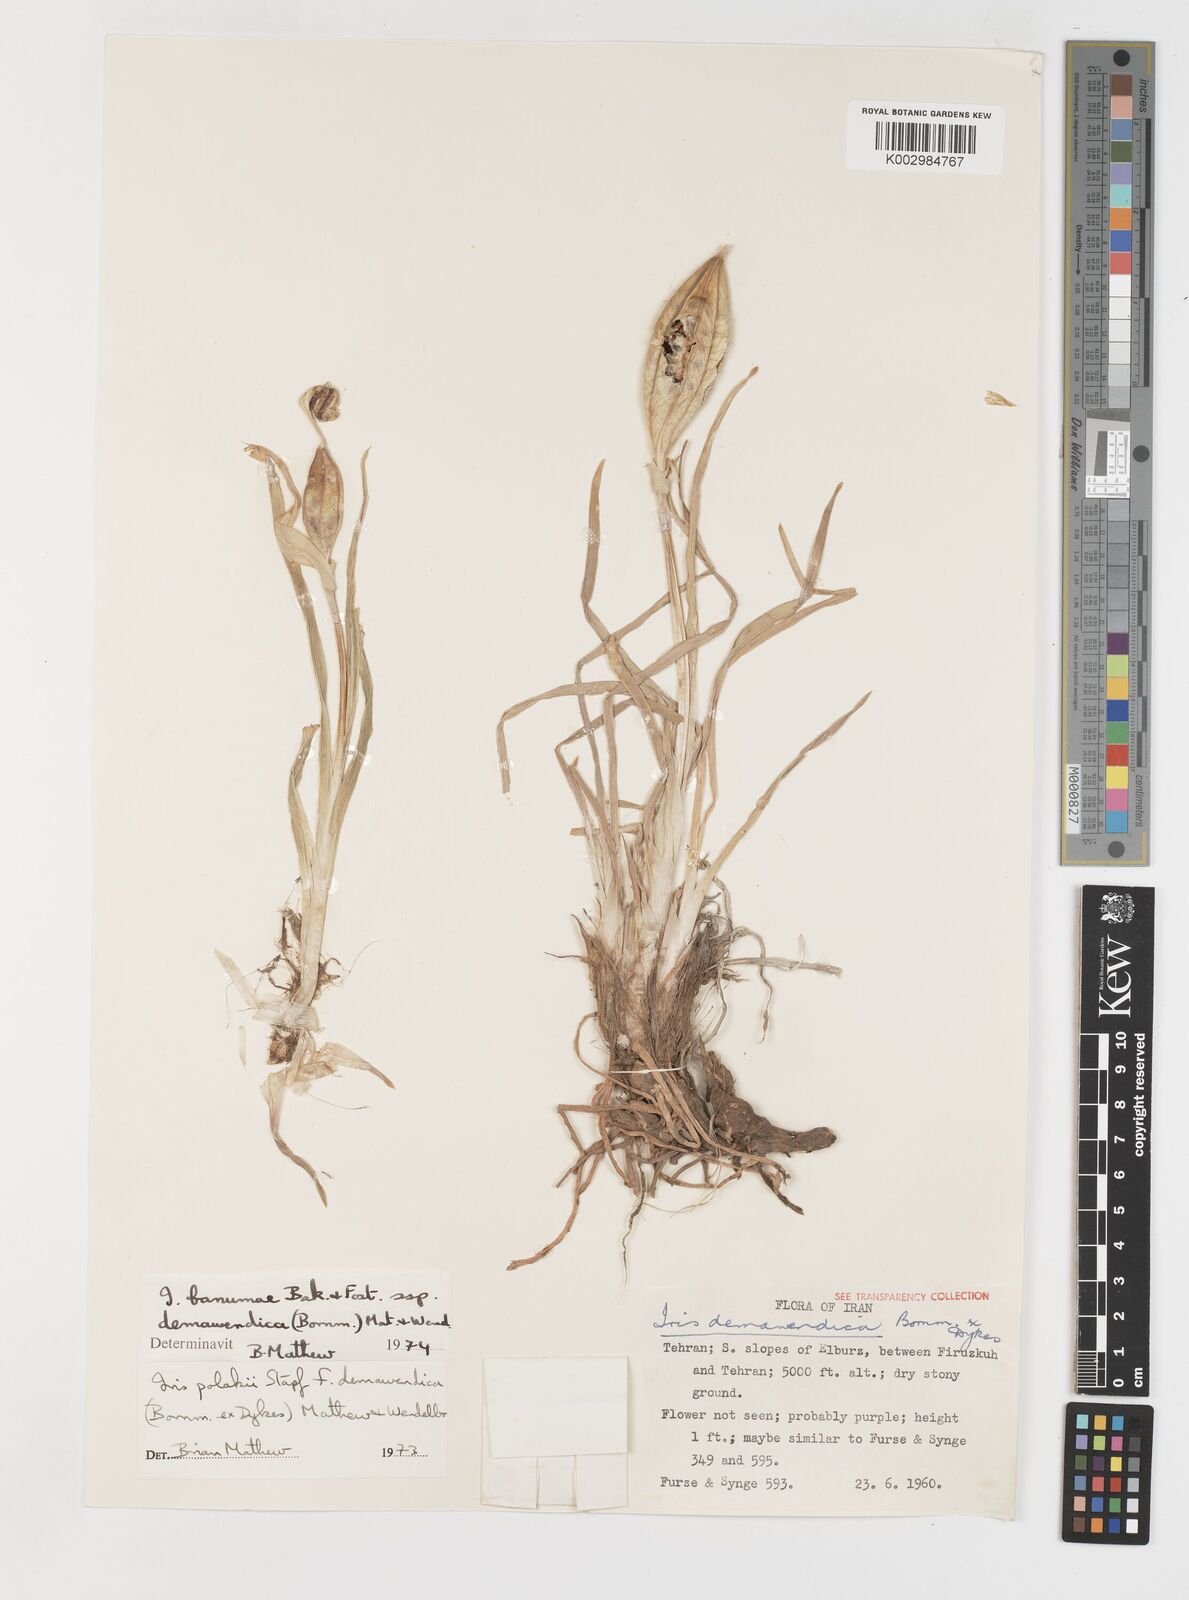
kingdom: Plantae
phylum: Tracheophyta
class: Liliopsida
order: Asparagales
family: Iridaceae
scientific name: Iridaceae
